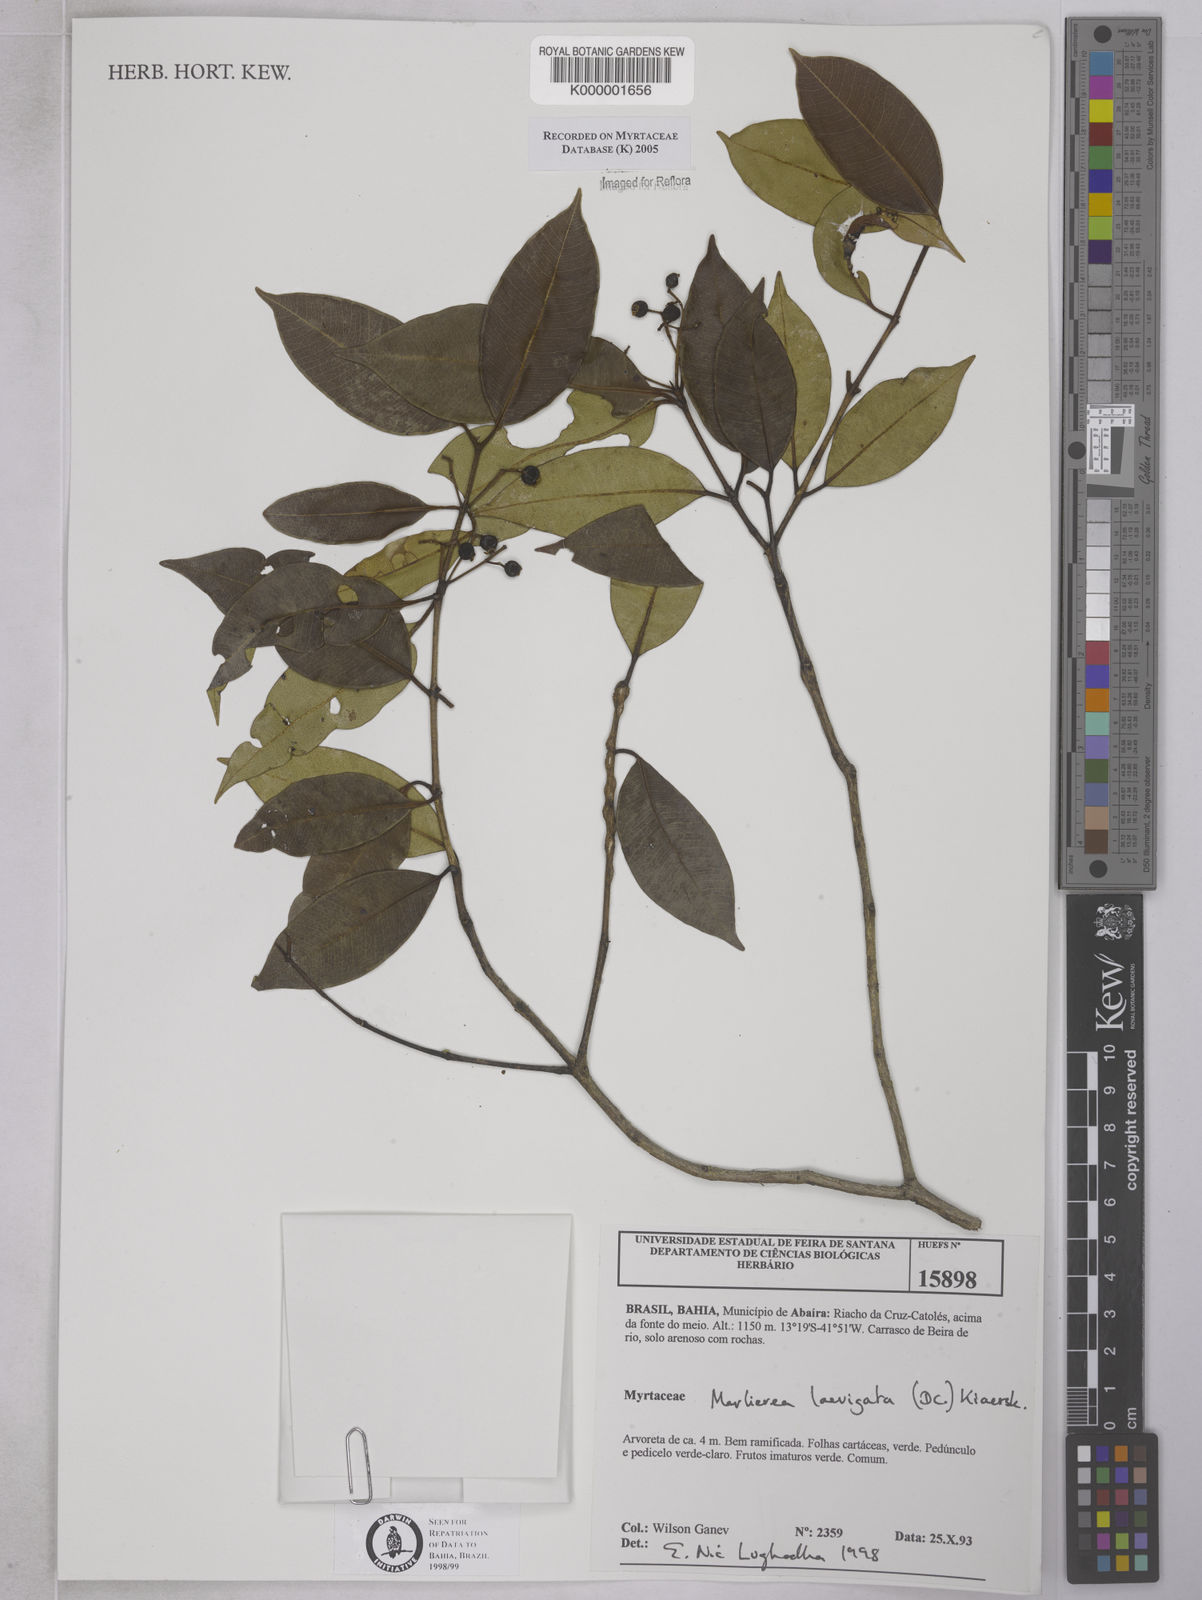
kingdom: Plantae
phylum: Tracheophyta
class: Magnoliopsida
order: Myrtales
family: Myrtaceae
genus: Myrcia
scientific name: Myrcia multipunctata
